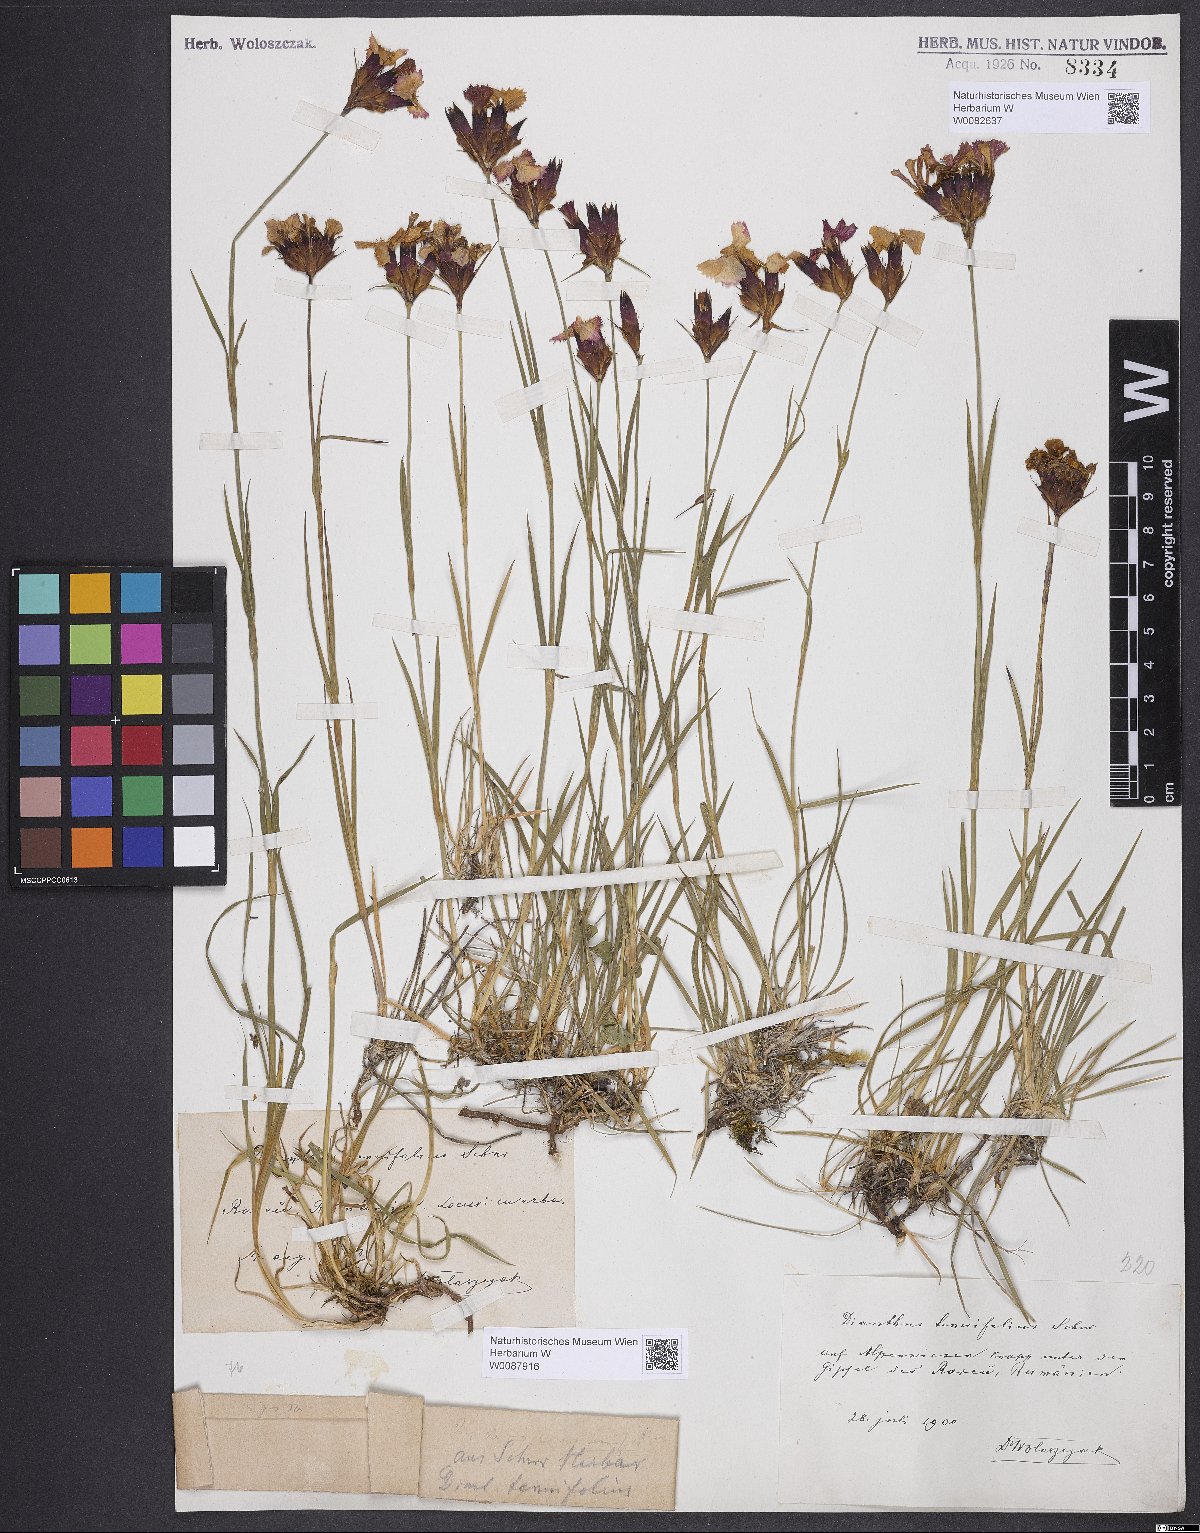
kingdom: Plantae
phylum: Tracheophyta
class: Magnoliopsida
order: Caryophyllales
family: Caryophyllaceae
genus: Dianthus
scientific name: Dianthus carthusianorum
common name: Carthusian pink
